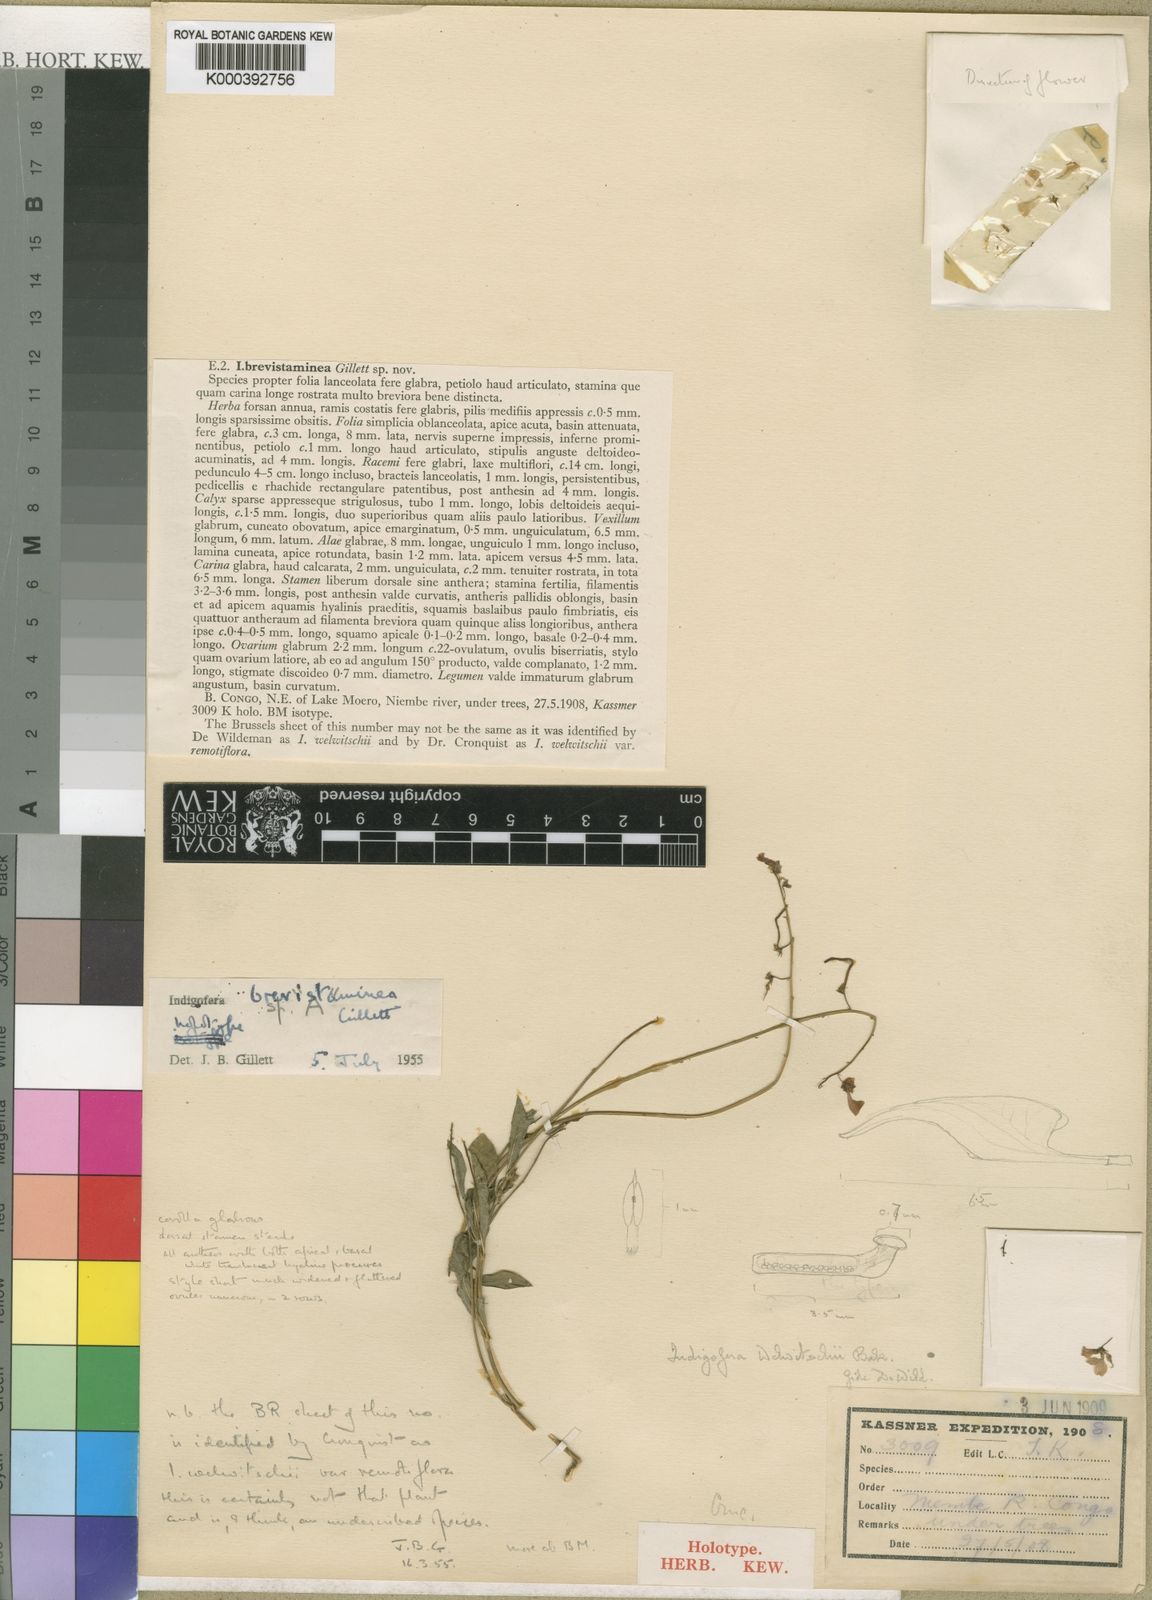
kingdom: Plantae
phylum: Tracheophyta
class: Magnoliopsida
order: Fabales
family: Fabaceae
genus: Microcharis
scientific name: Microcharis brevistaminea
